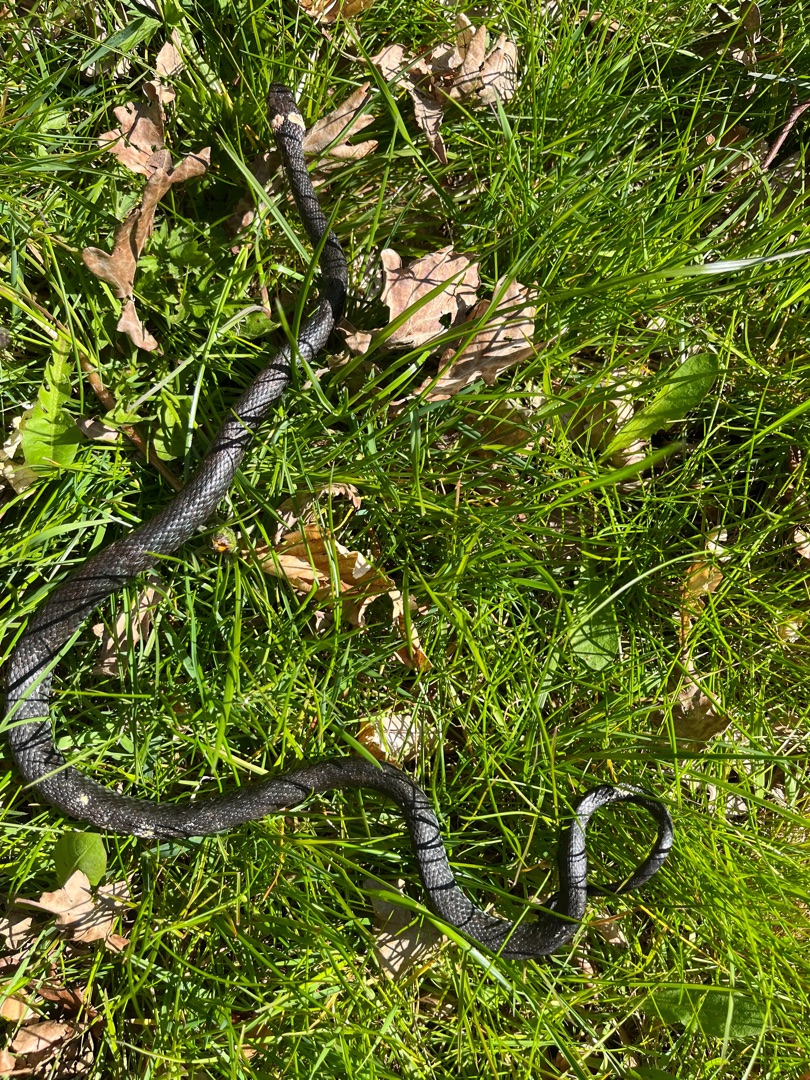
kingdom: Animalia
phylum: Chordata
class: Squamata
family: Colubridae
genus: Natrix
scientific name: Natrix natrix
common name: Snog
